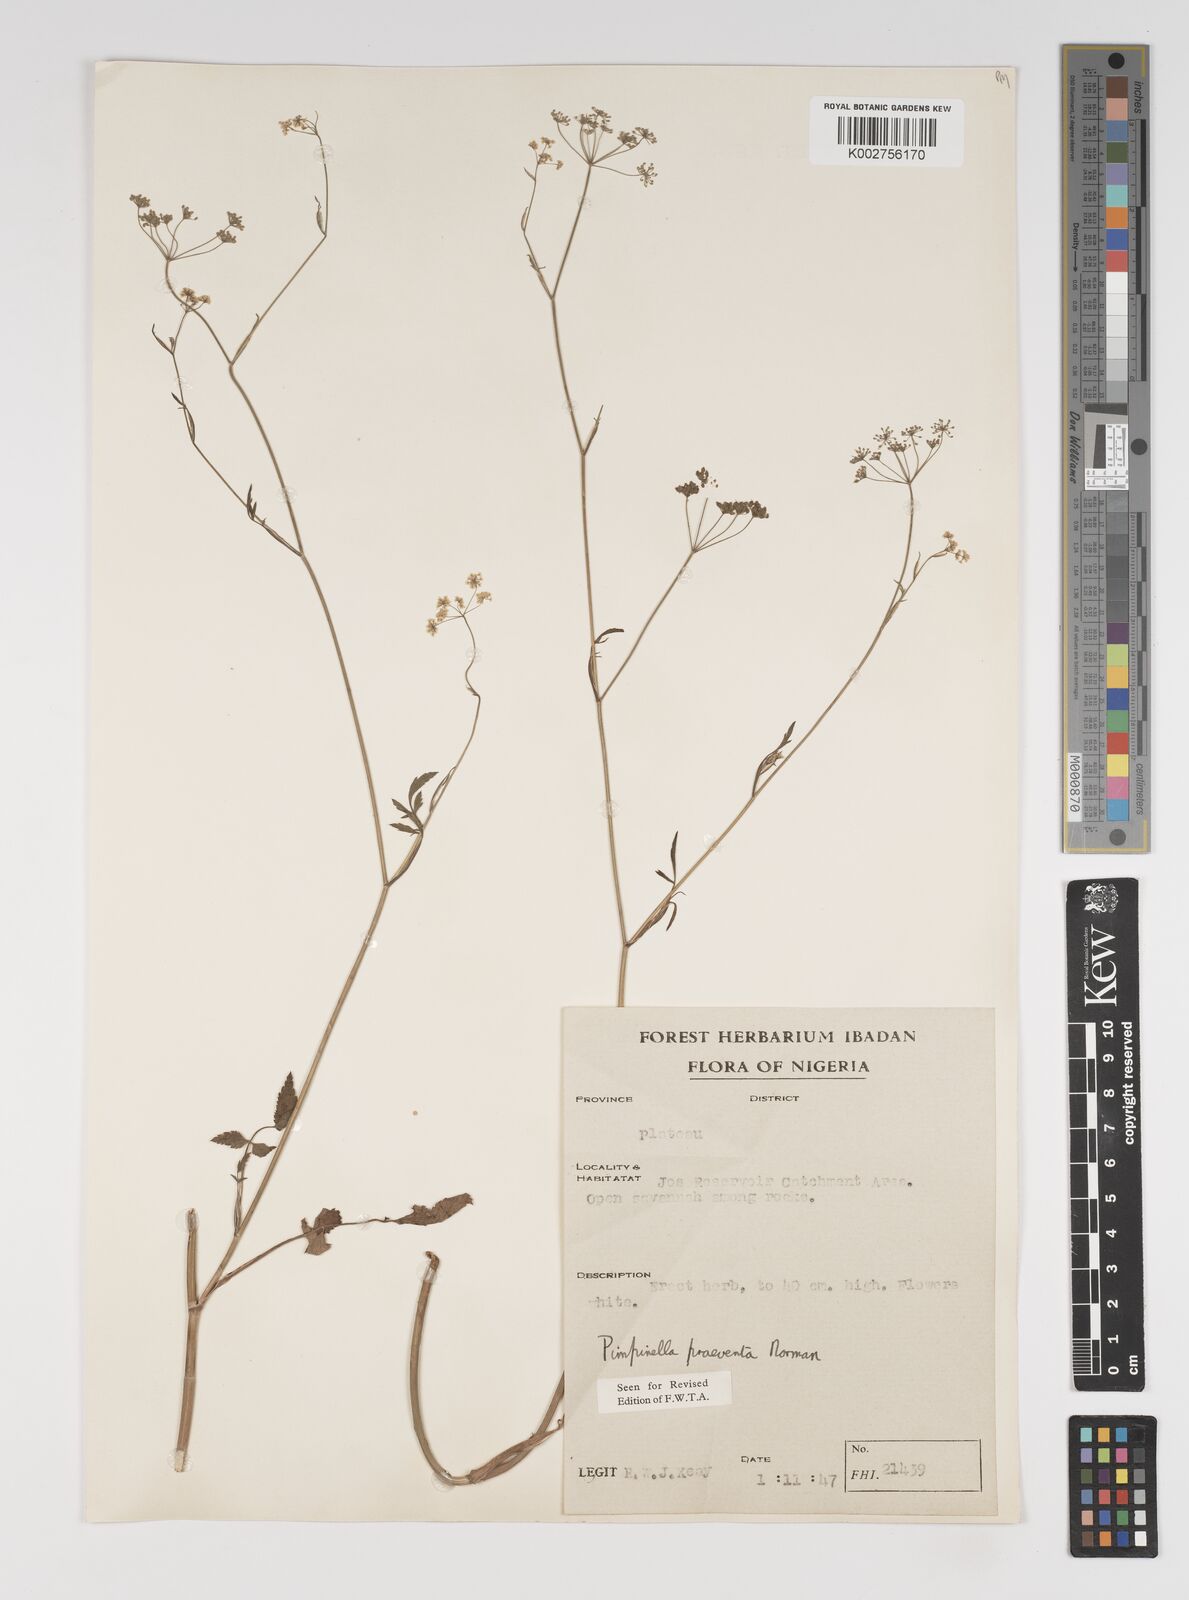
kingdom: Plantae
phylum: Tracheophyta
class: Magnoliopsida
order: Apiales
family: Apiaceae
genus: Pimpinella
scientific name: Pimpinella hirtella
